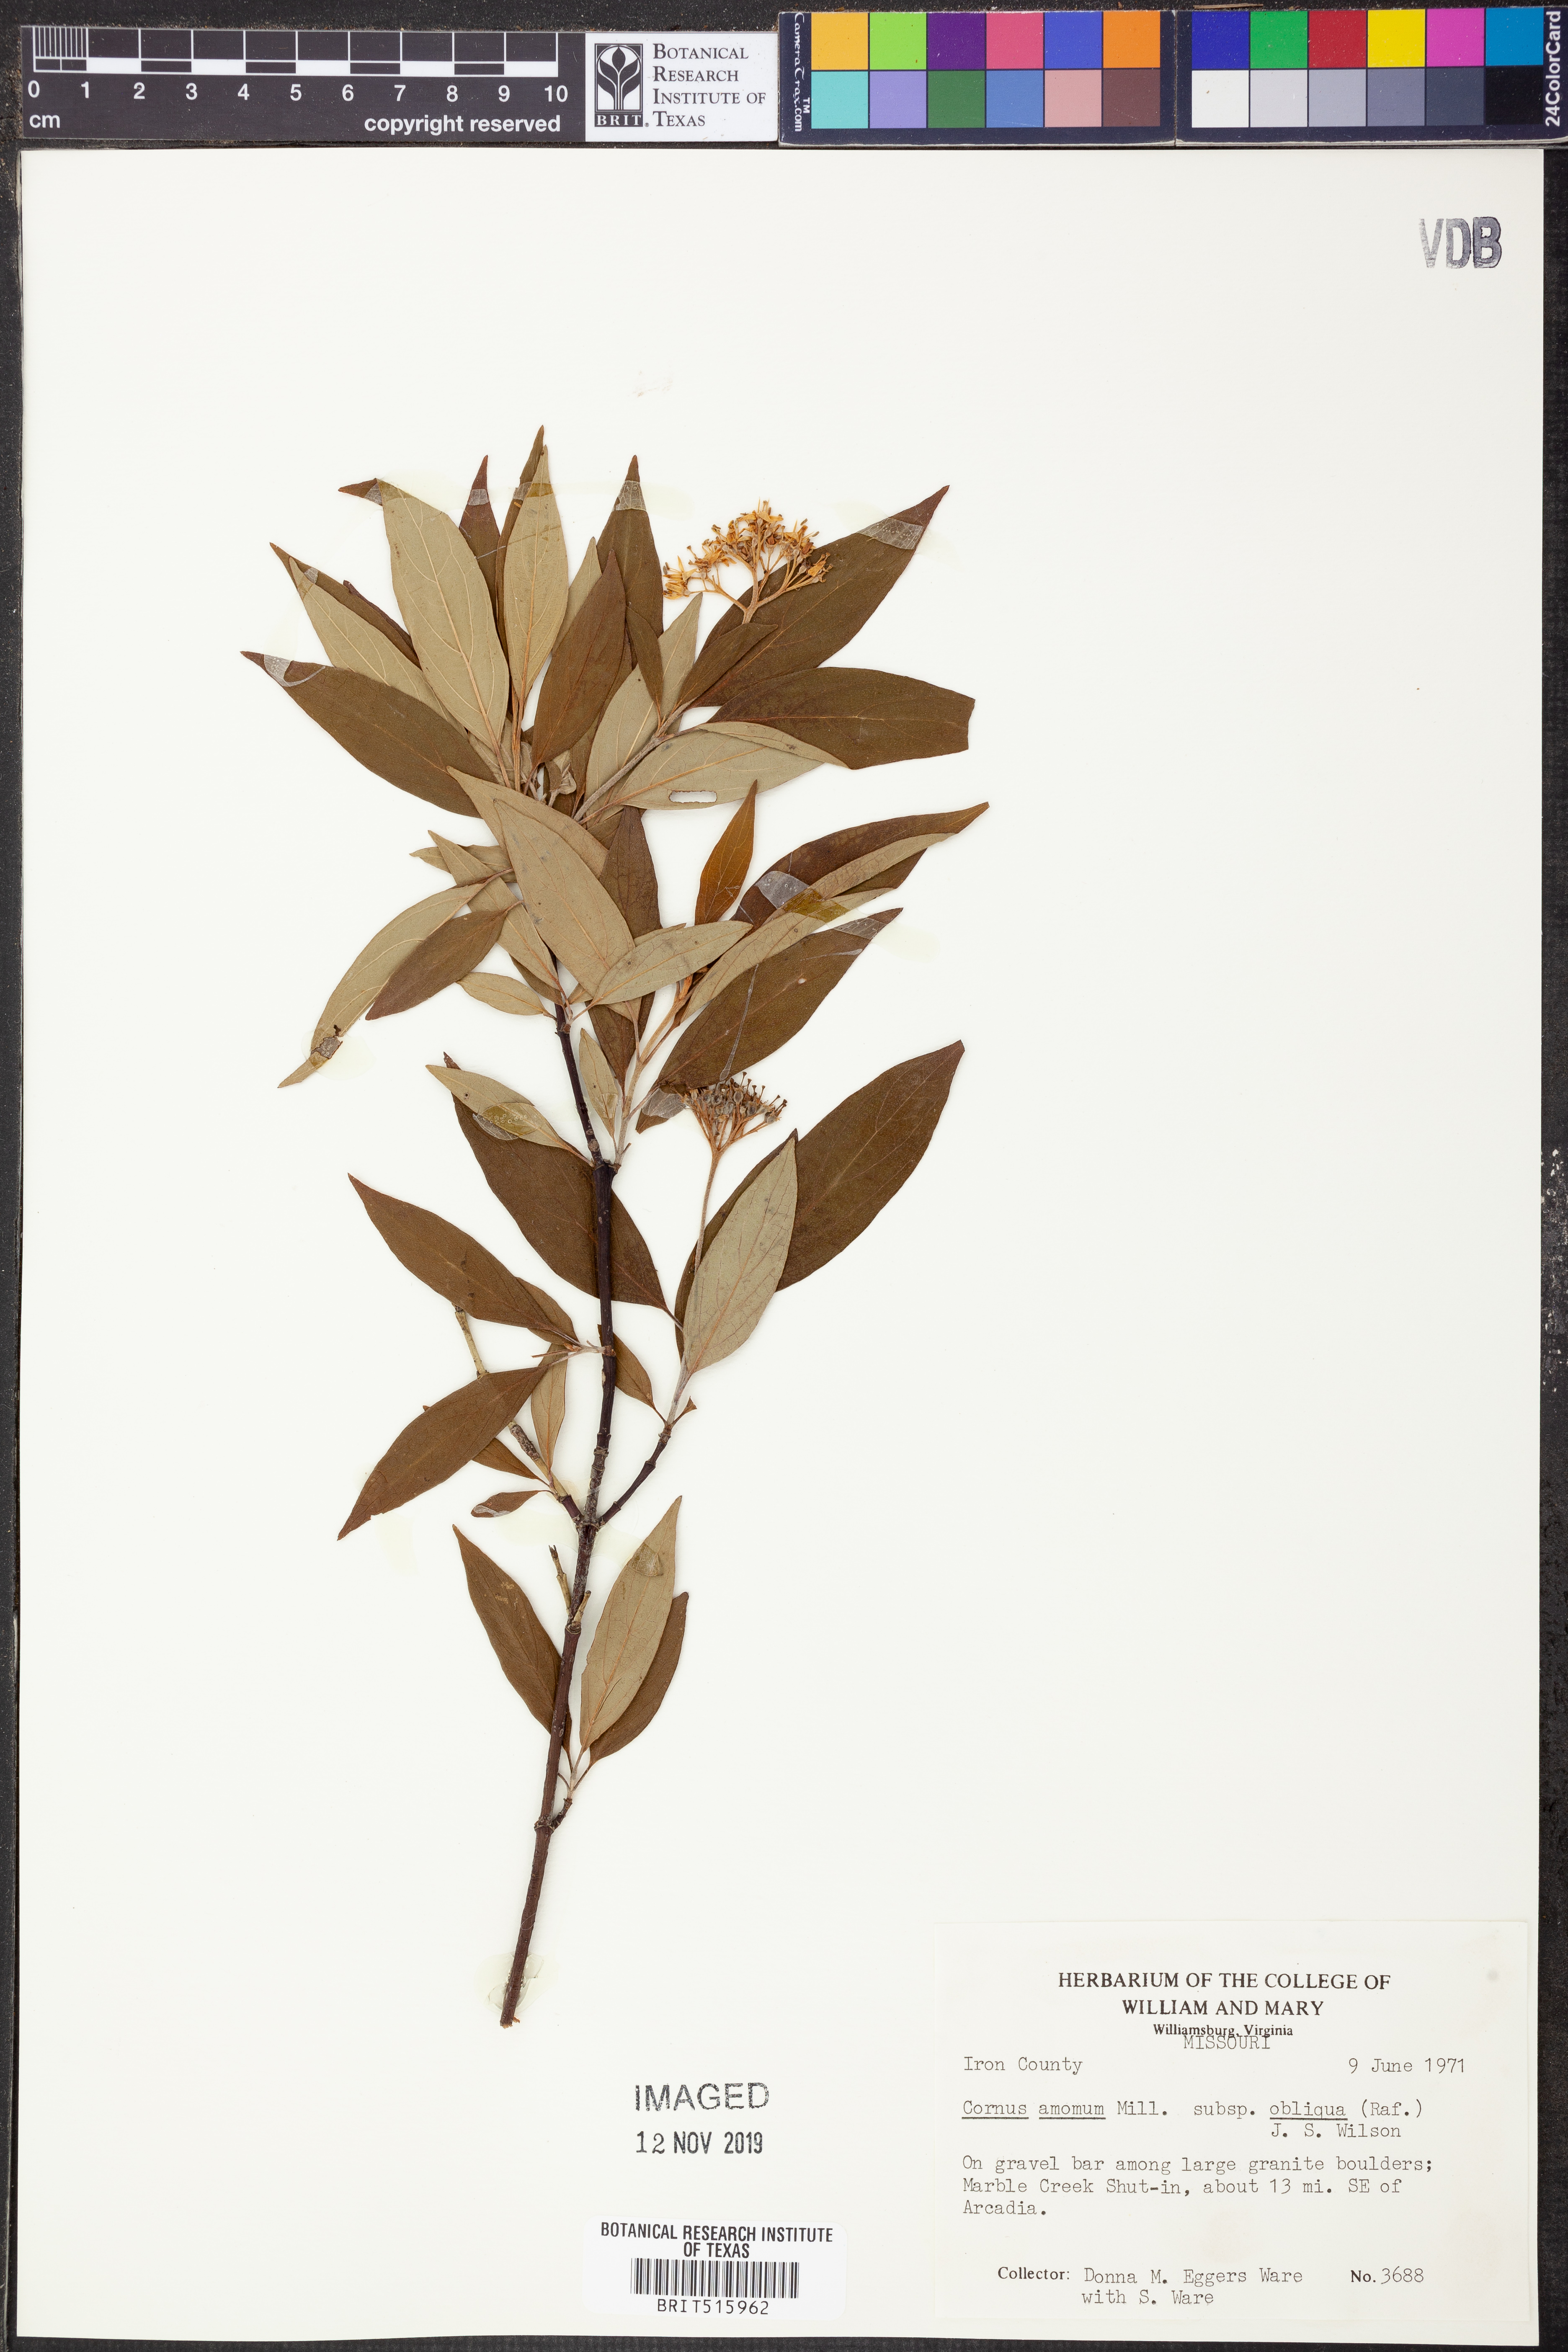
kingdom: Plantae
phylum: Tracheophyta
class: Magnoliopsida
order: Cornales
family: Cornaceae
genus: Cornus
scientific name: Cornus obliqua
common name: Pale dogwood
